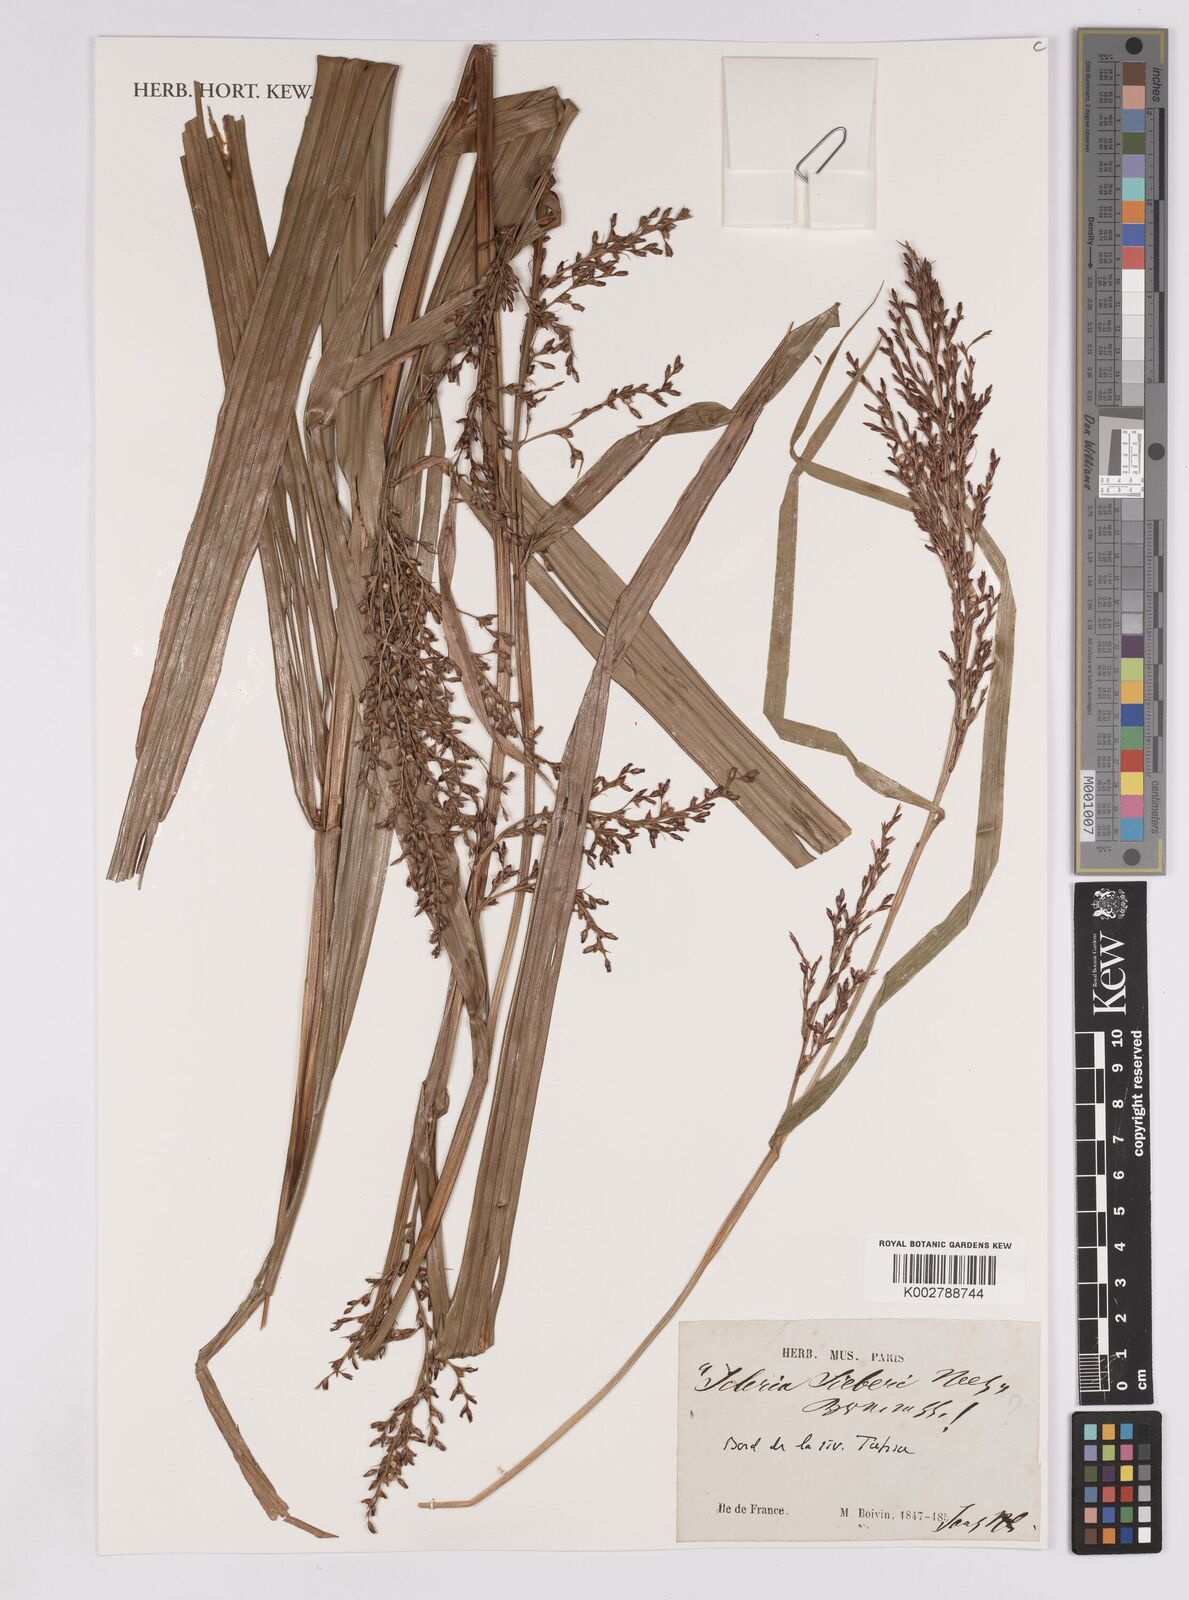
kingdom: Plantae
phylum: Tracheophyta
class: Liliopsida
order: Poales
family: Cyperaceae
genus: Scleria
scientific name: Scleria gaertneri
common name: Cortadera blanca
